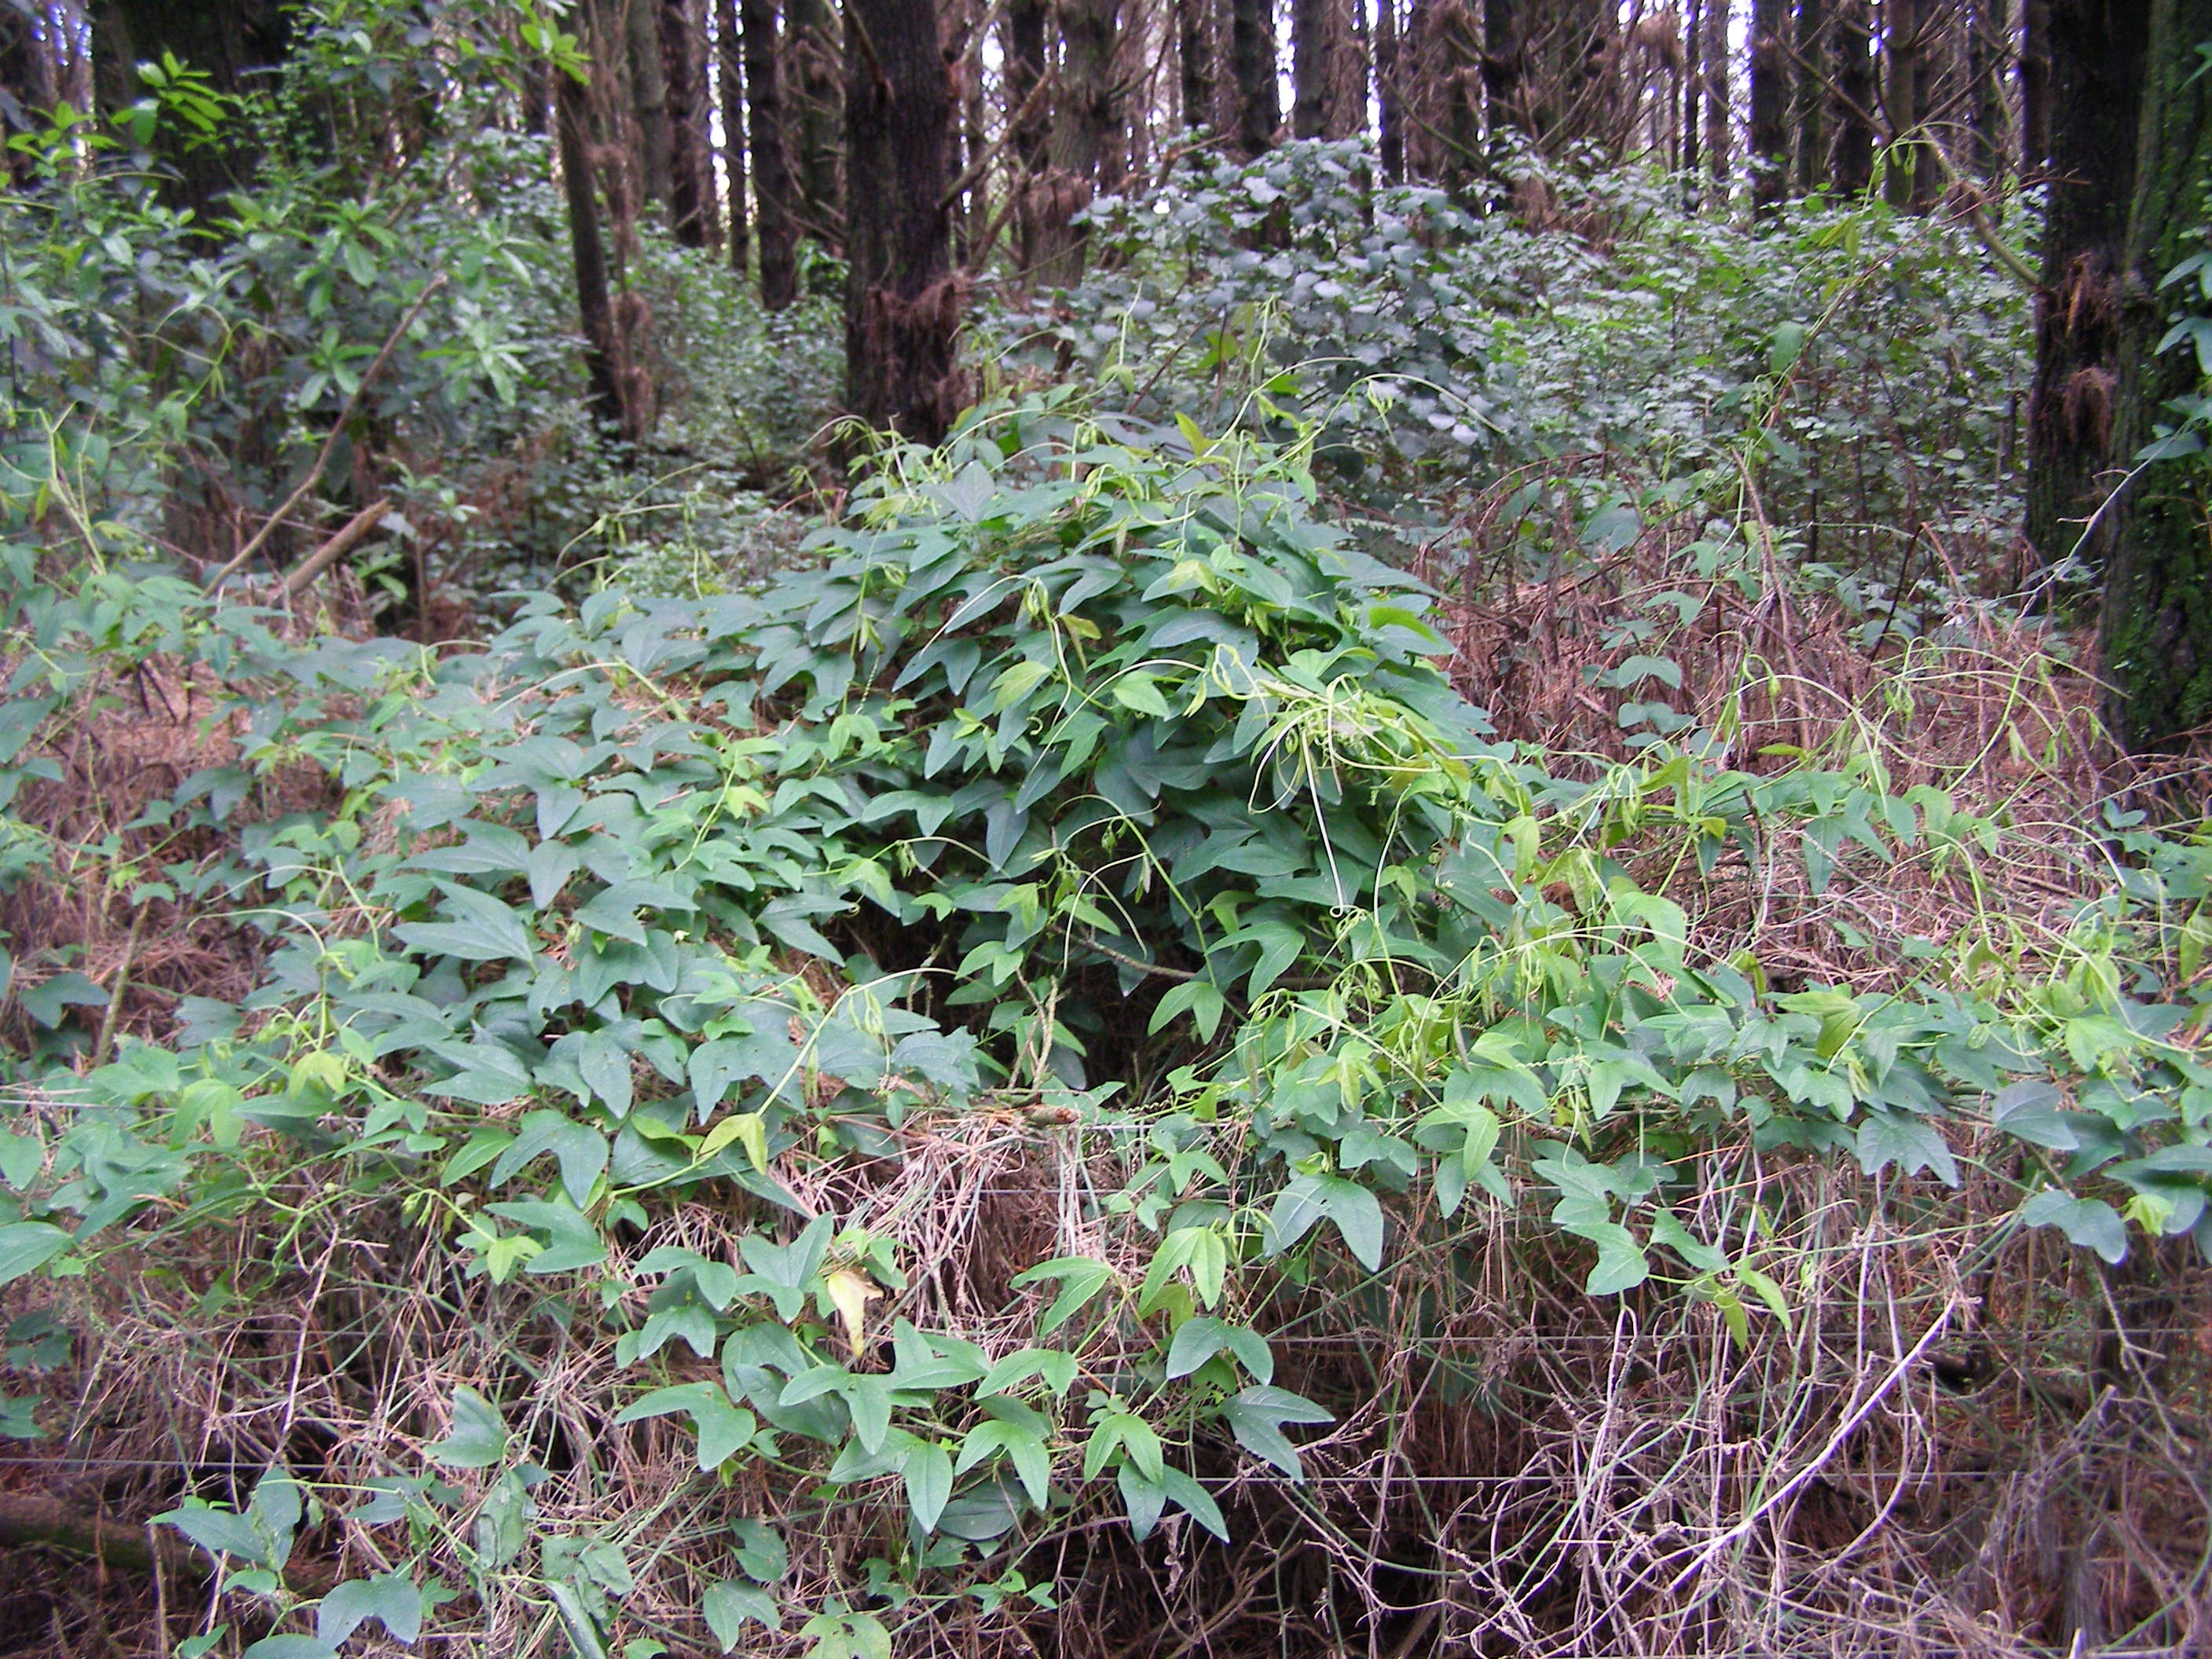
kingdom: Plantae
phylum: Tracheophyta
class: Magnoliopsida
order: Malpighiales
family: Passifloraceae
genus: Passiflora
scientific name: Passiflora apetala
